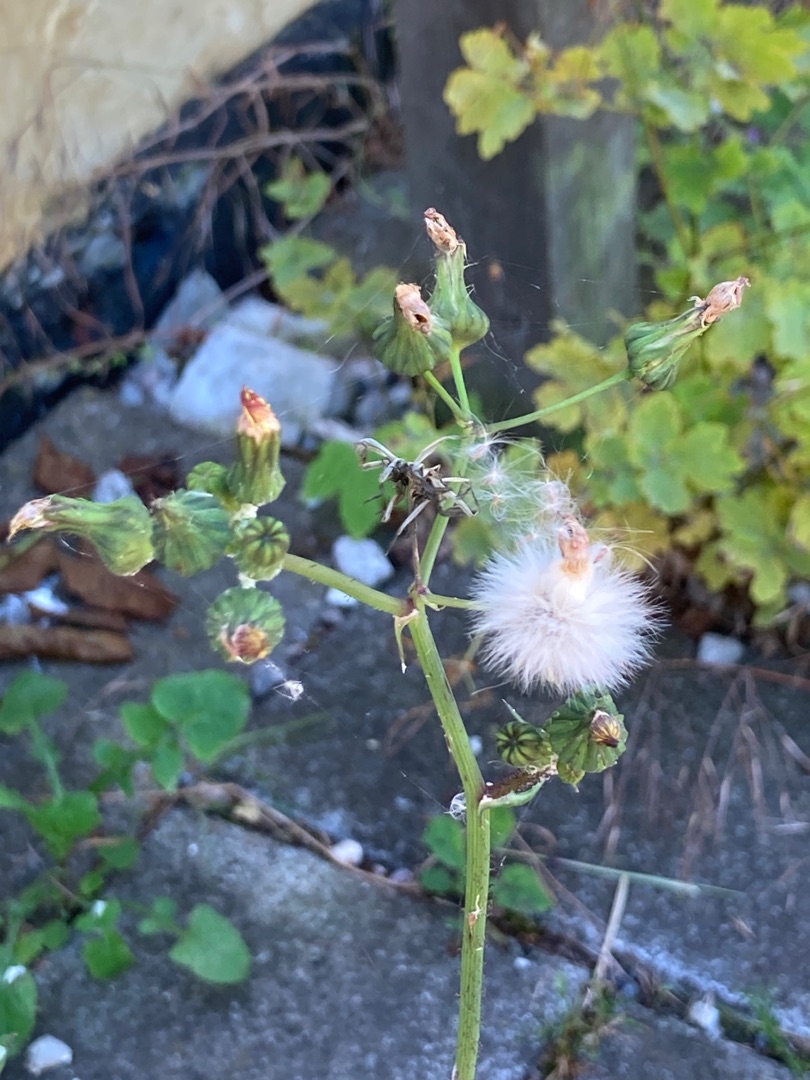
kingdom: Plantae
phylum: Tracheophyta
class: Magnoliopsida
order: Asterales
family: Asteraceae
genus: Sonchus
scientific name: Sonchus oleraceus
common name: Almindelig svinemælk
